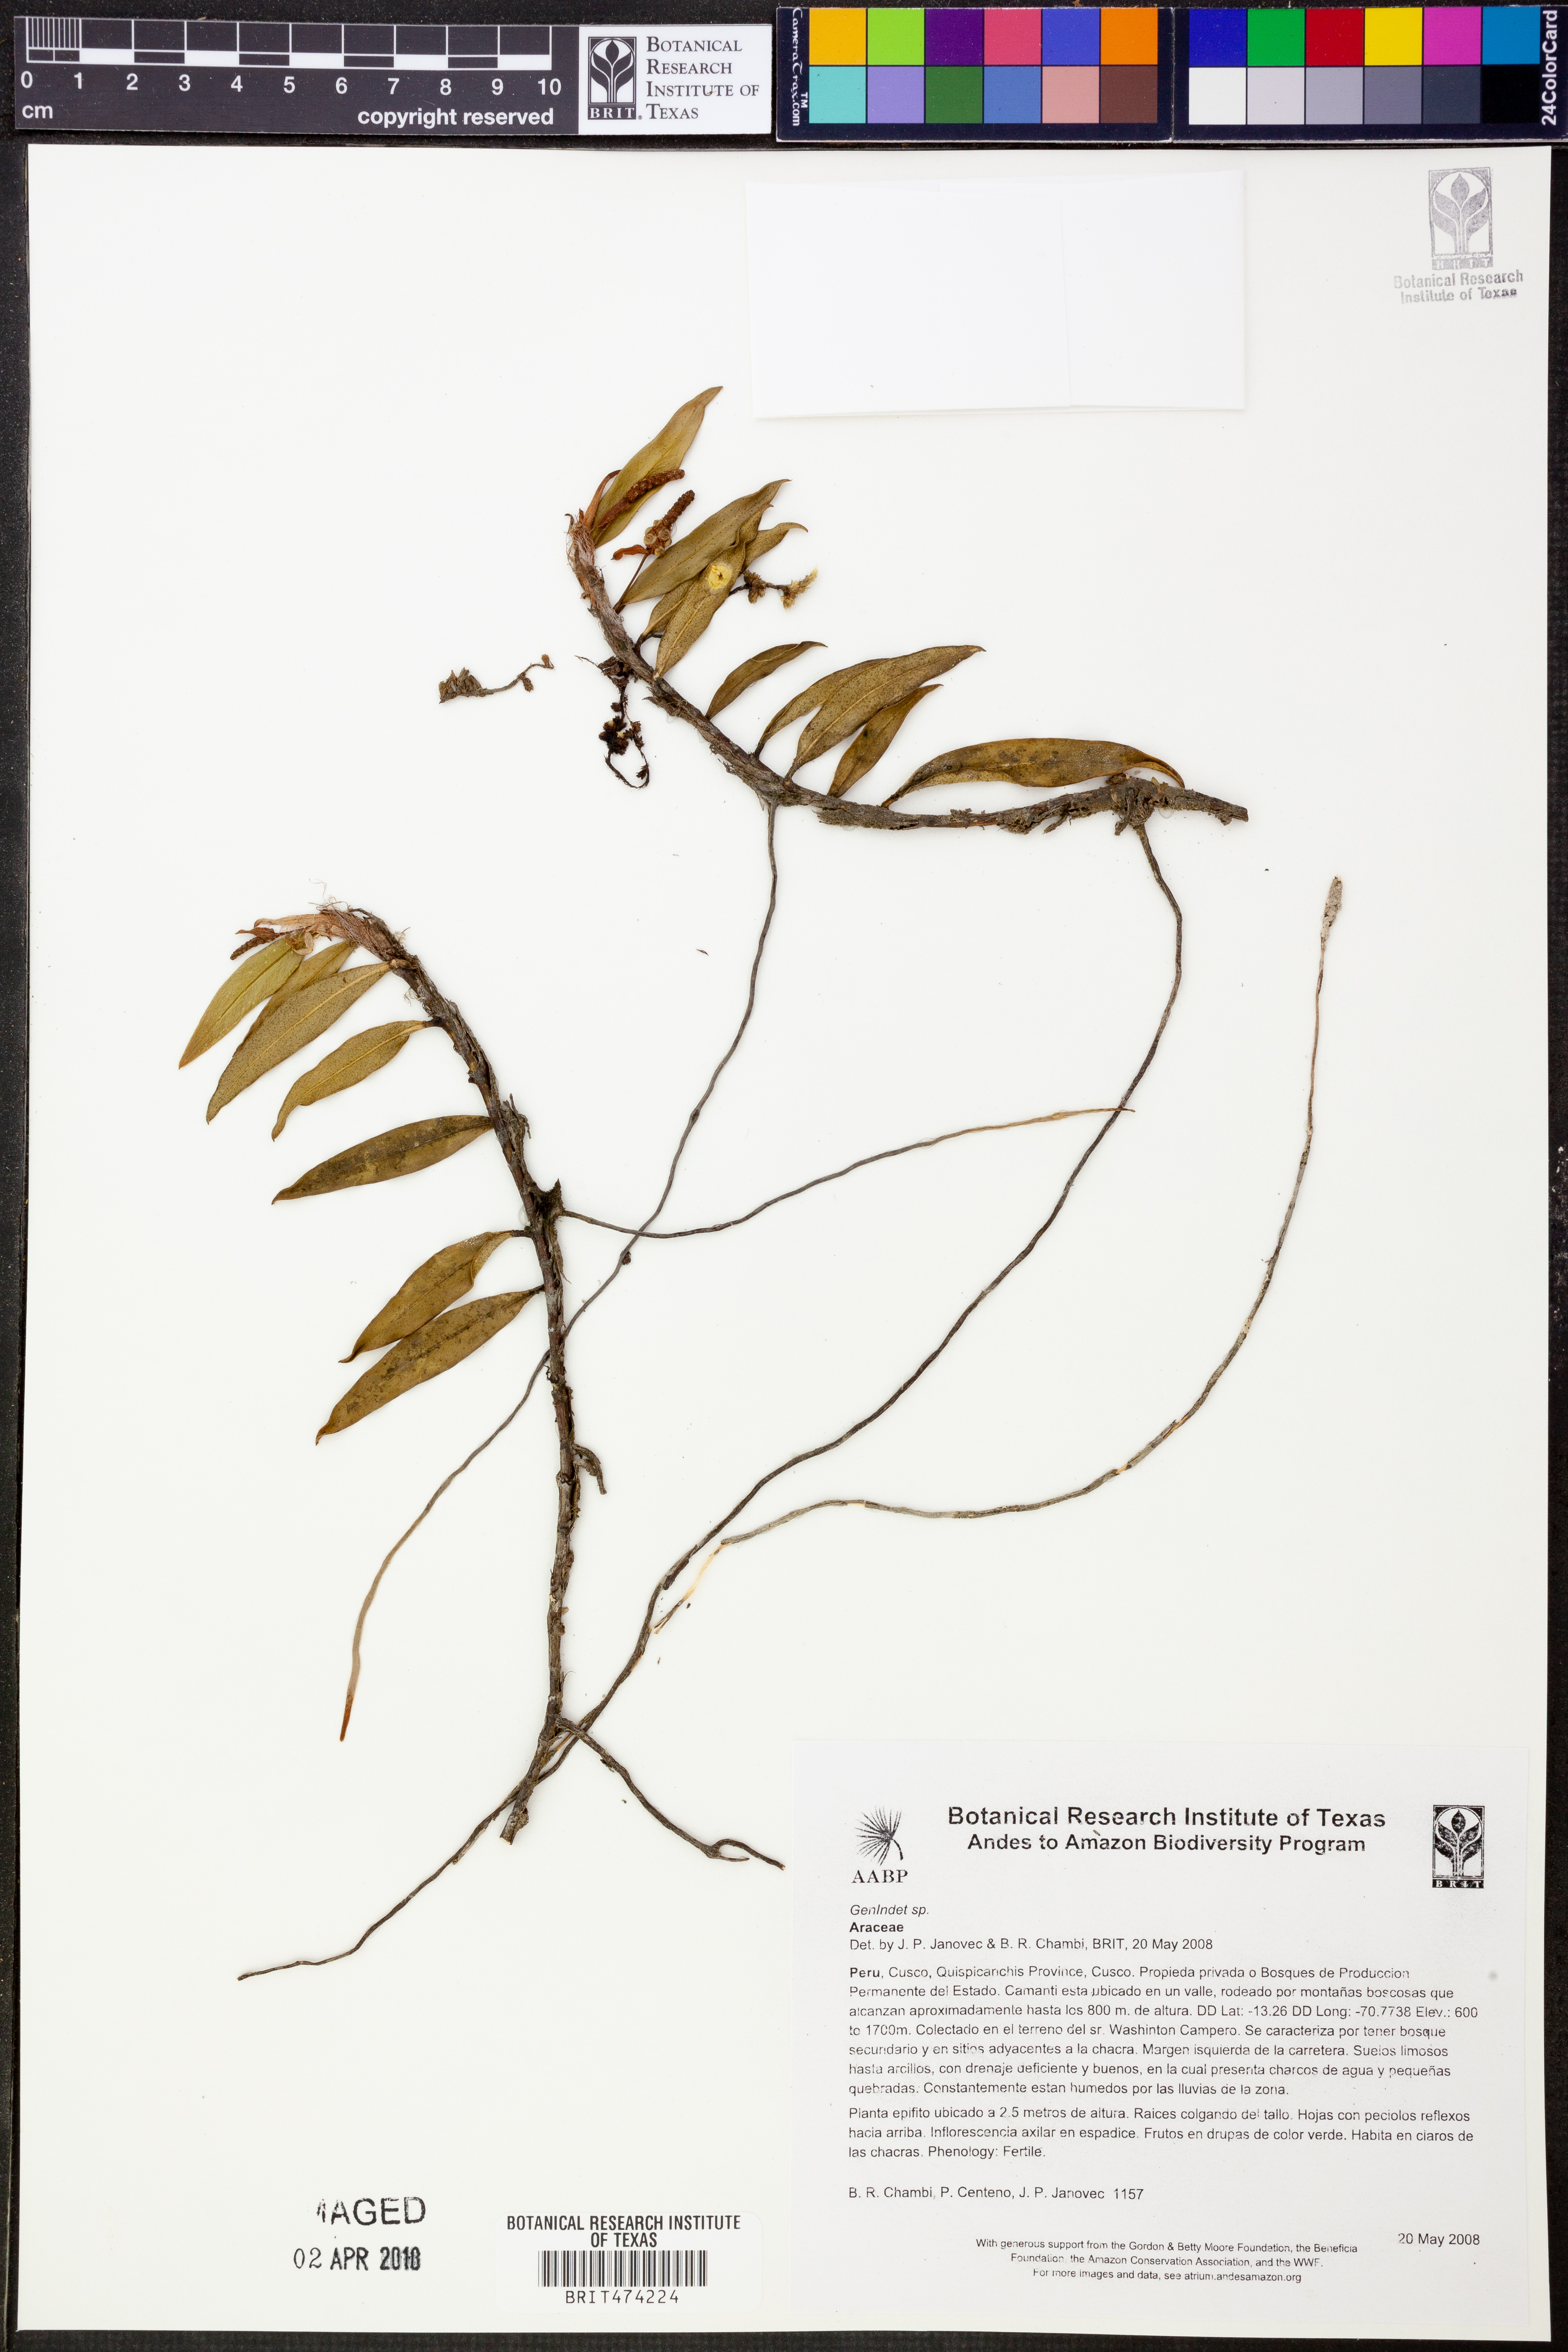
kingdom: Plantae
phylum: Tracheophyta
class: Liliopsida
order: Alismatales
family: Araceae
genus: Anthurium
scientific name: Anthurium scandens
